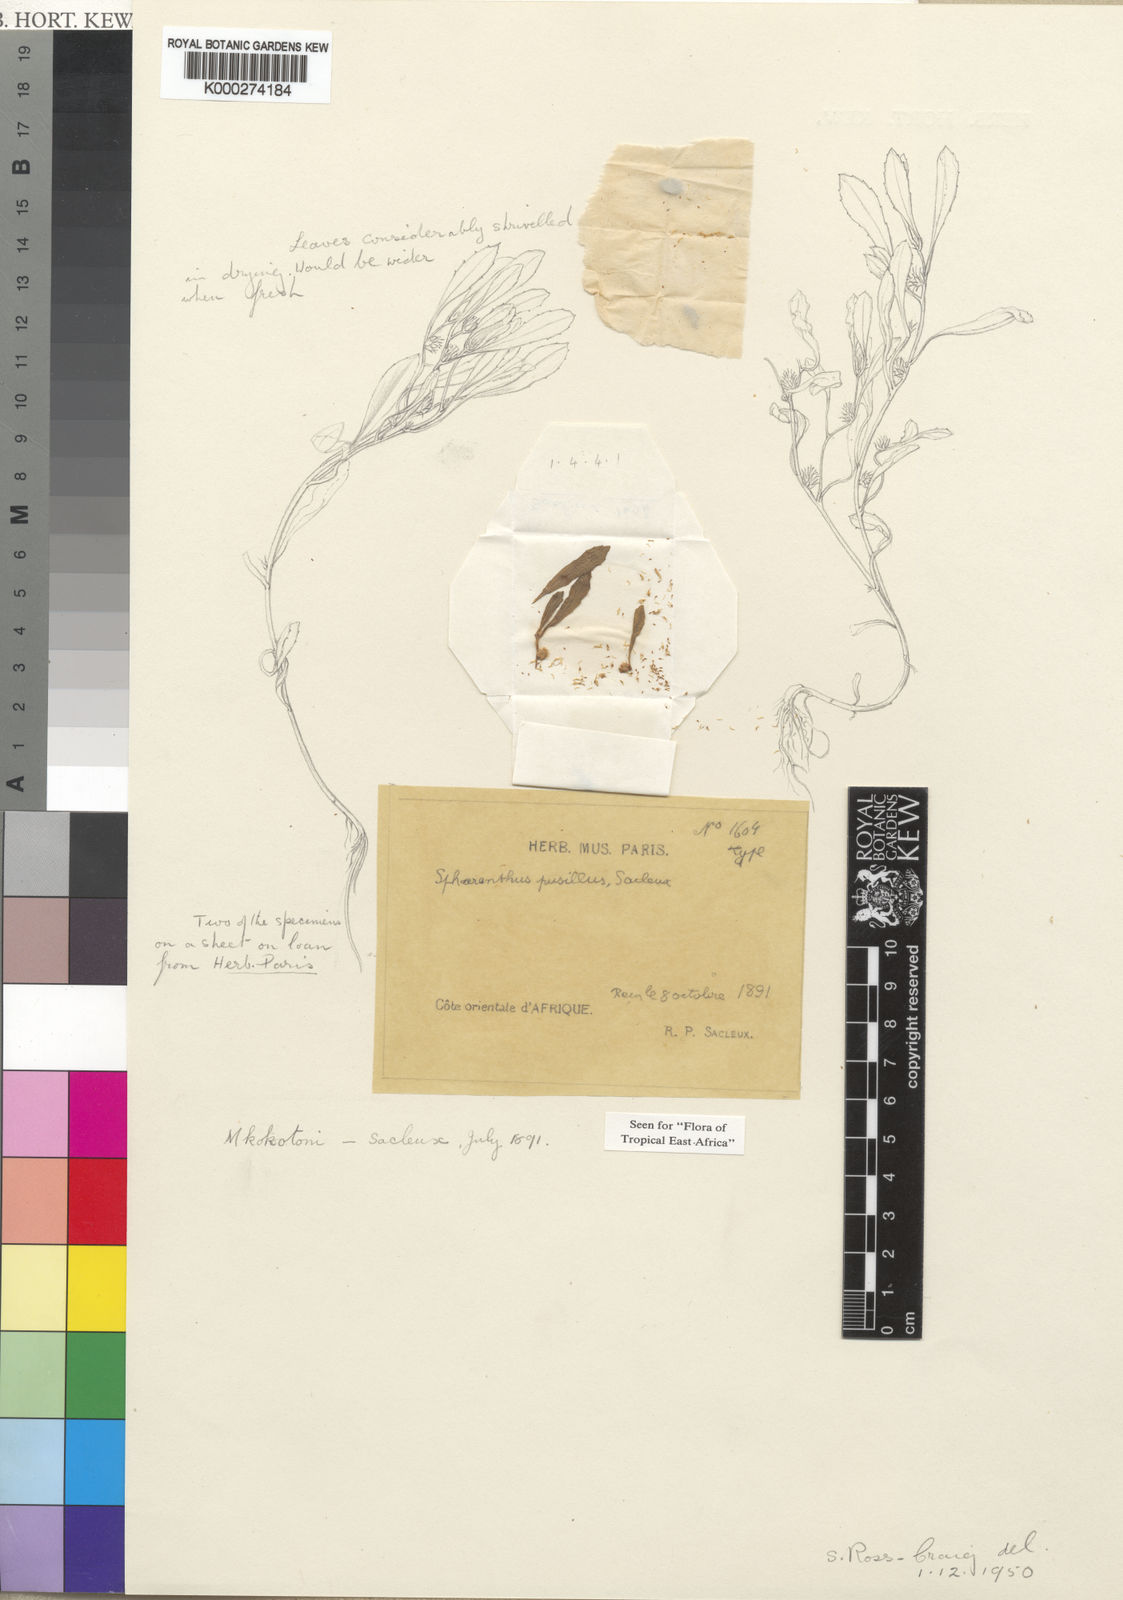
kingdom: Plantae
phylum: Tracheophyta
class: Magnoliopsida
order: Asterales
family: Asteraceae
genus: Sphaeranthus
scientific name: Sphaeranthus spathulatus
